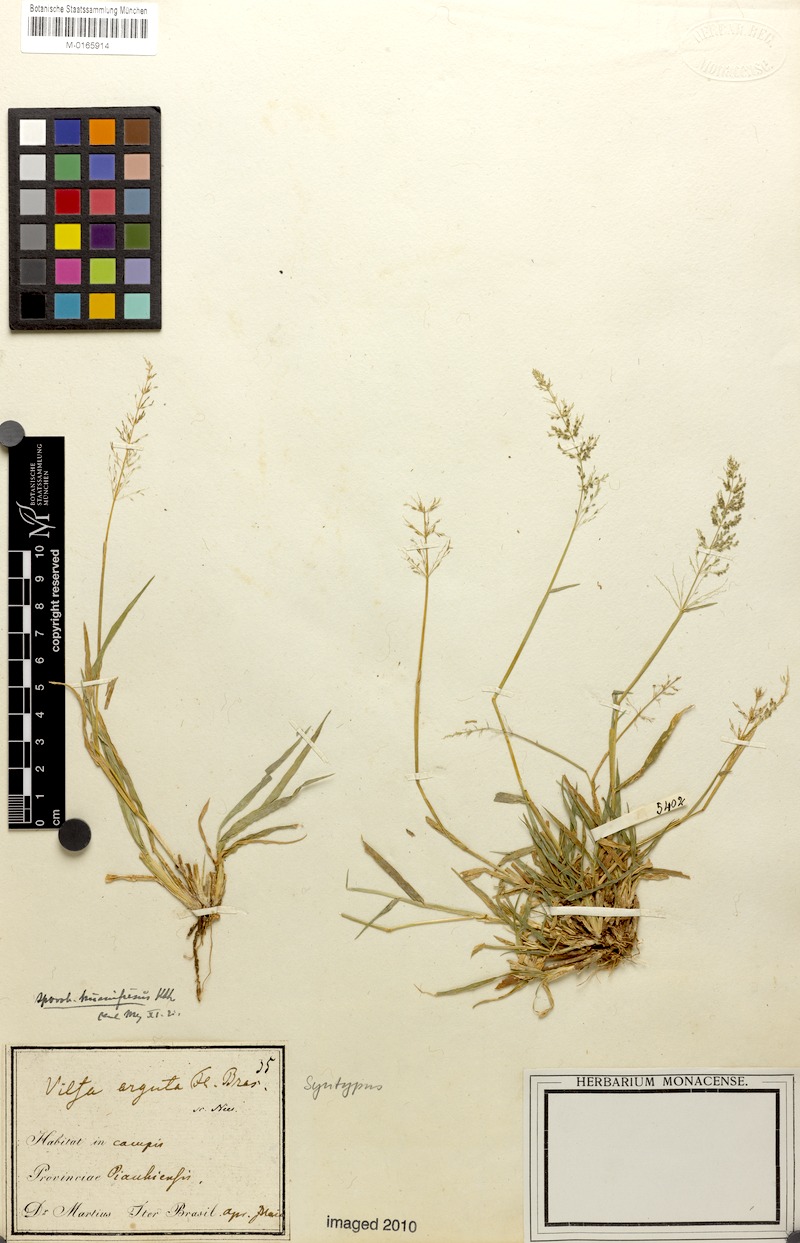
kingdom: Plantae
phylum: Tracheophyta
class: Liliopsida
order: Poales
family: Poaceae
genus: Sporobolus
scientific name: Sporobolus pyramidatus
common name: Whorled dropseed
